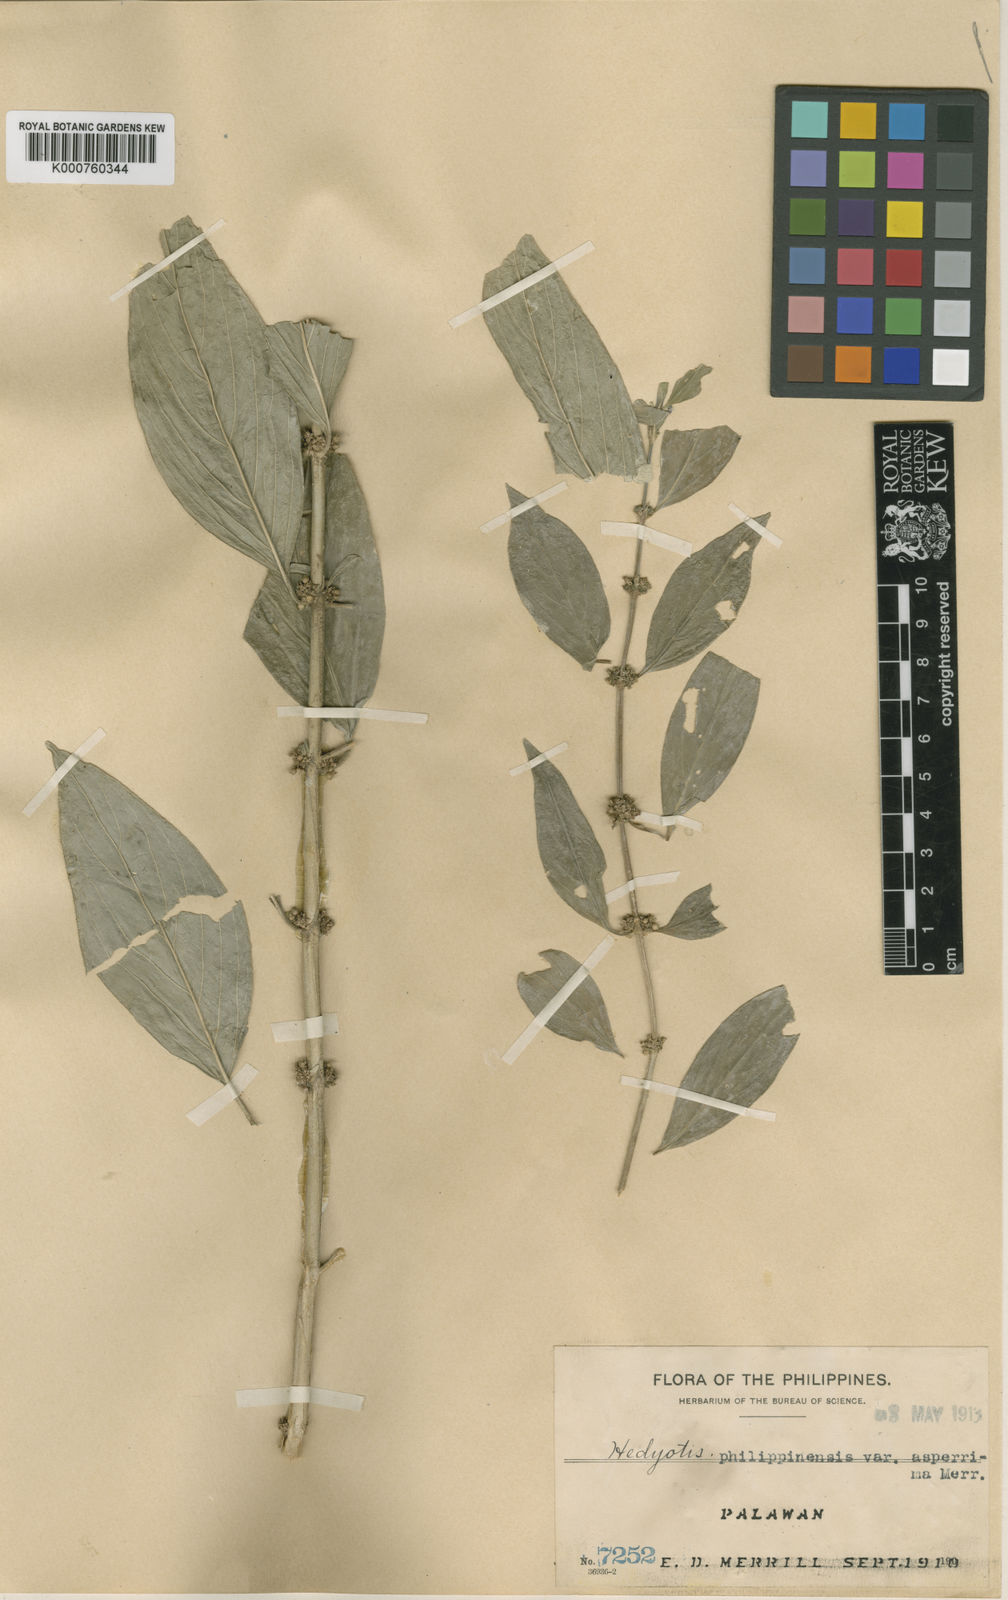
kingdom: Plantae
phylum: Tracheophyta
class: Magnoliopsida
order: Gentianales
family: Rubiaceae
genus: Hedyotis
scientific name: Hedyotis rigida
